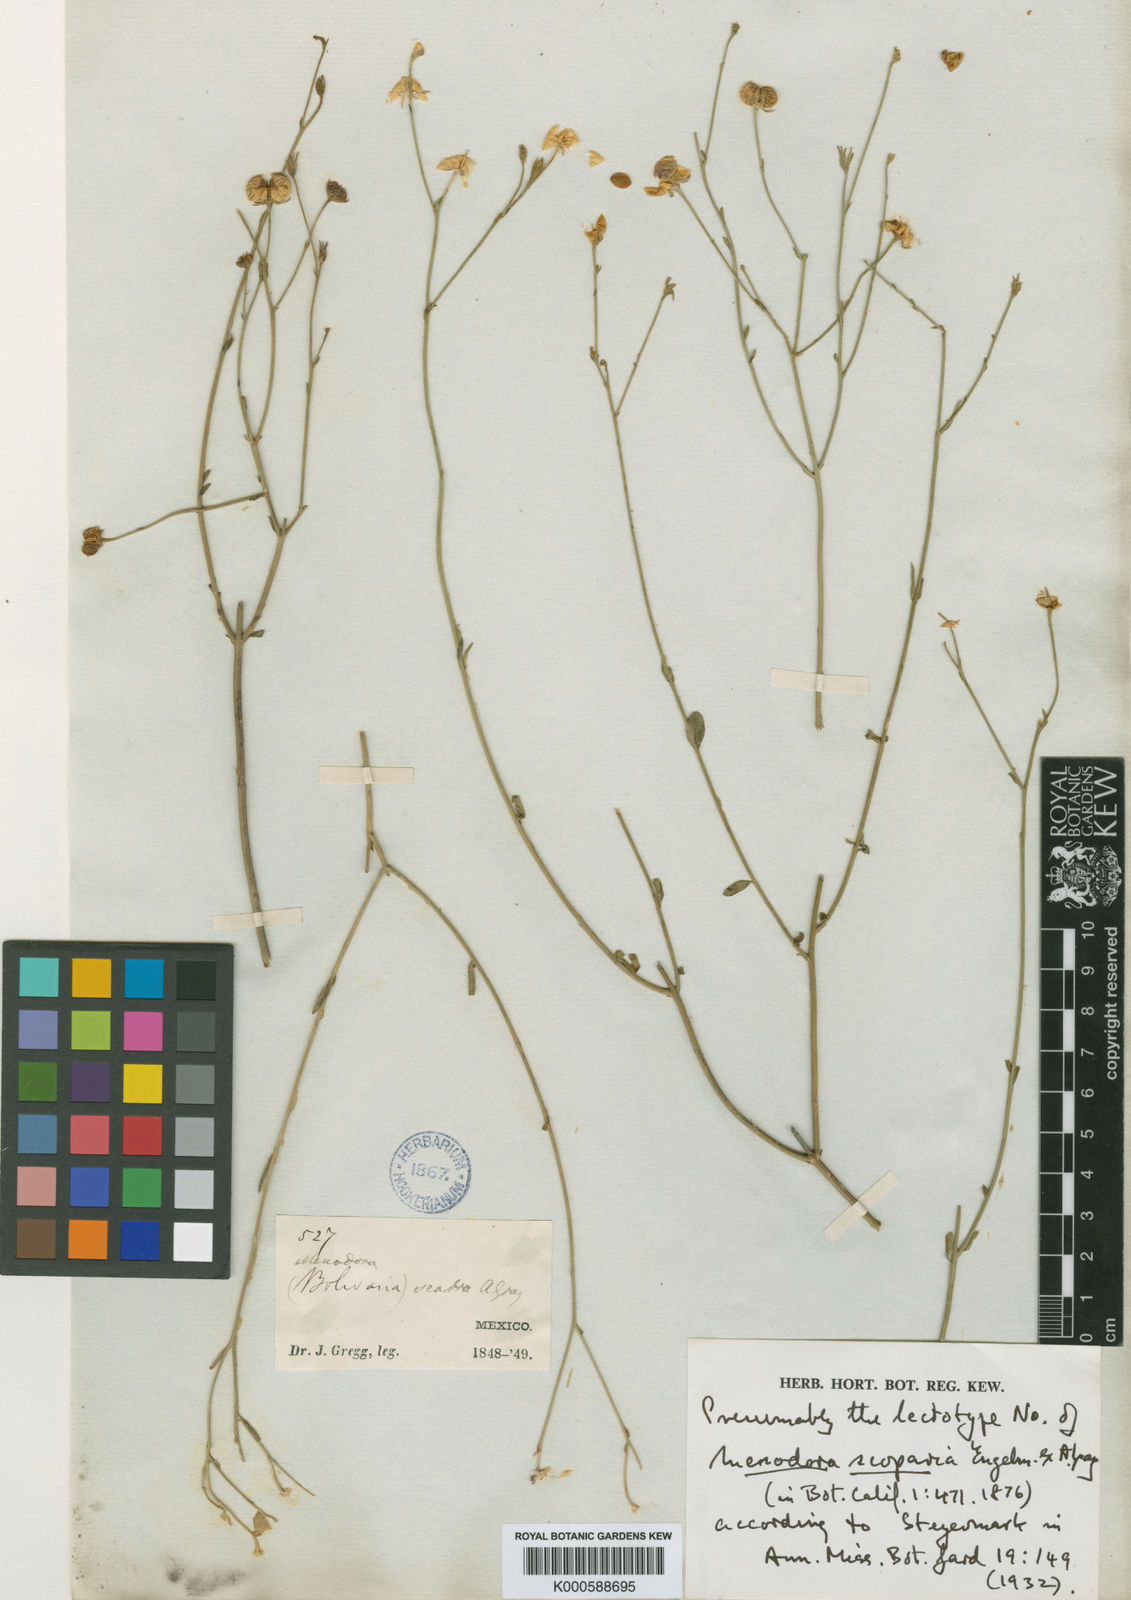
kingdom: Plantae
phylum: Tracheophyta
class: Magnoliopsida
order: Lamiales
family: Oleaceae
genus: Menodora
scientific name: Menodora scabra
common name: Rough menodora
